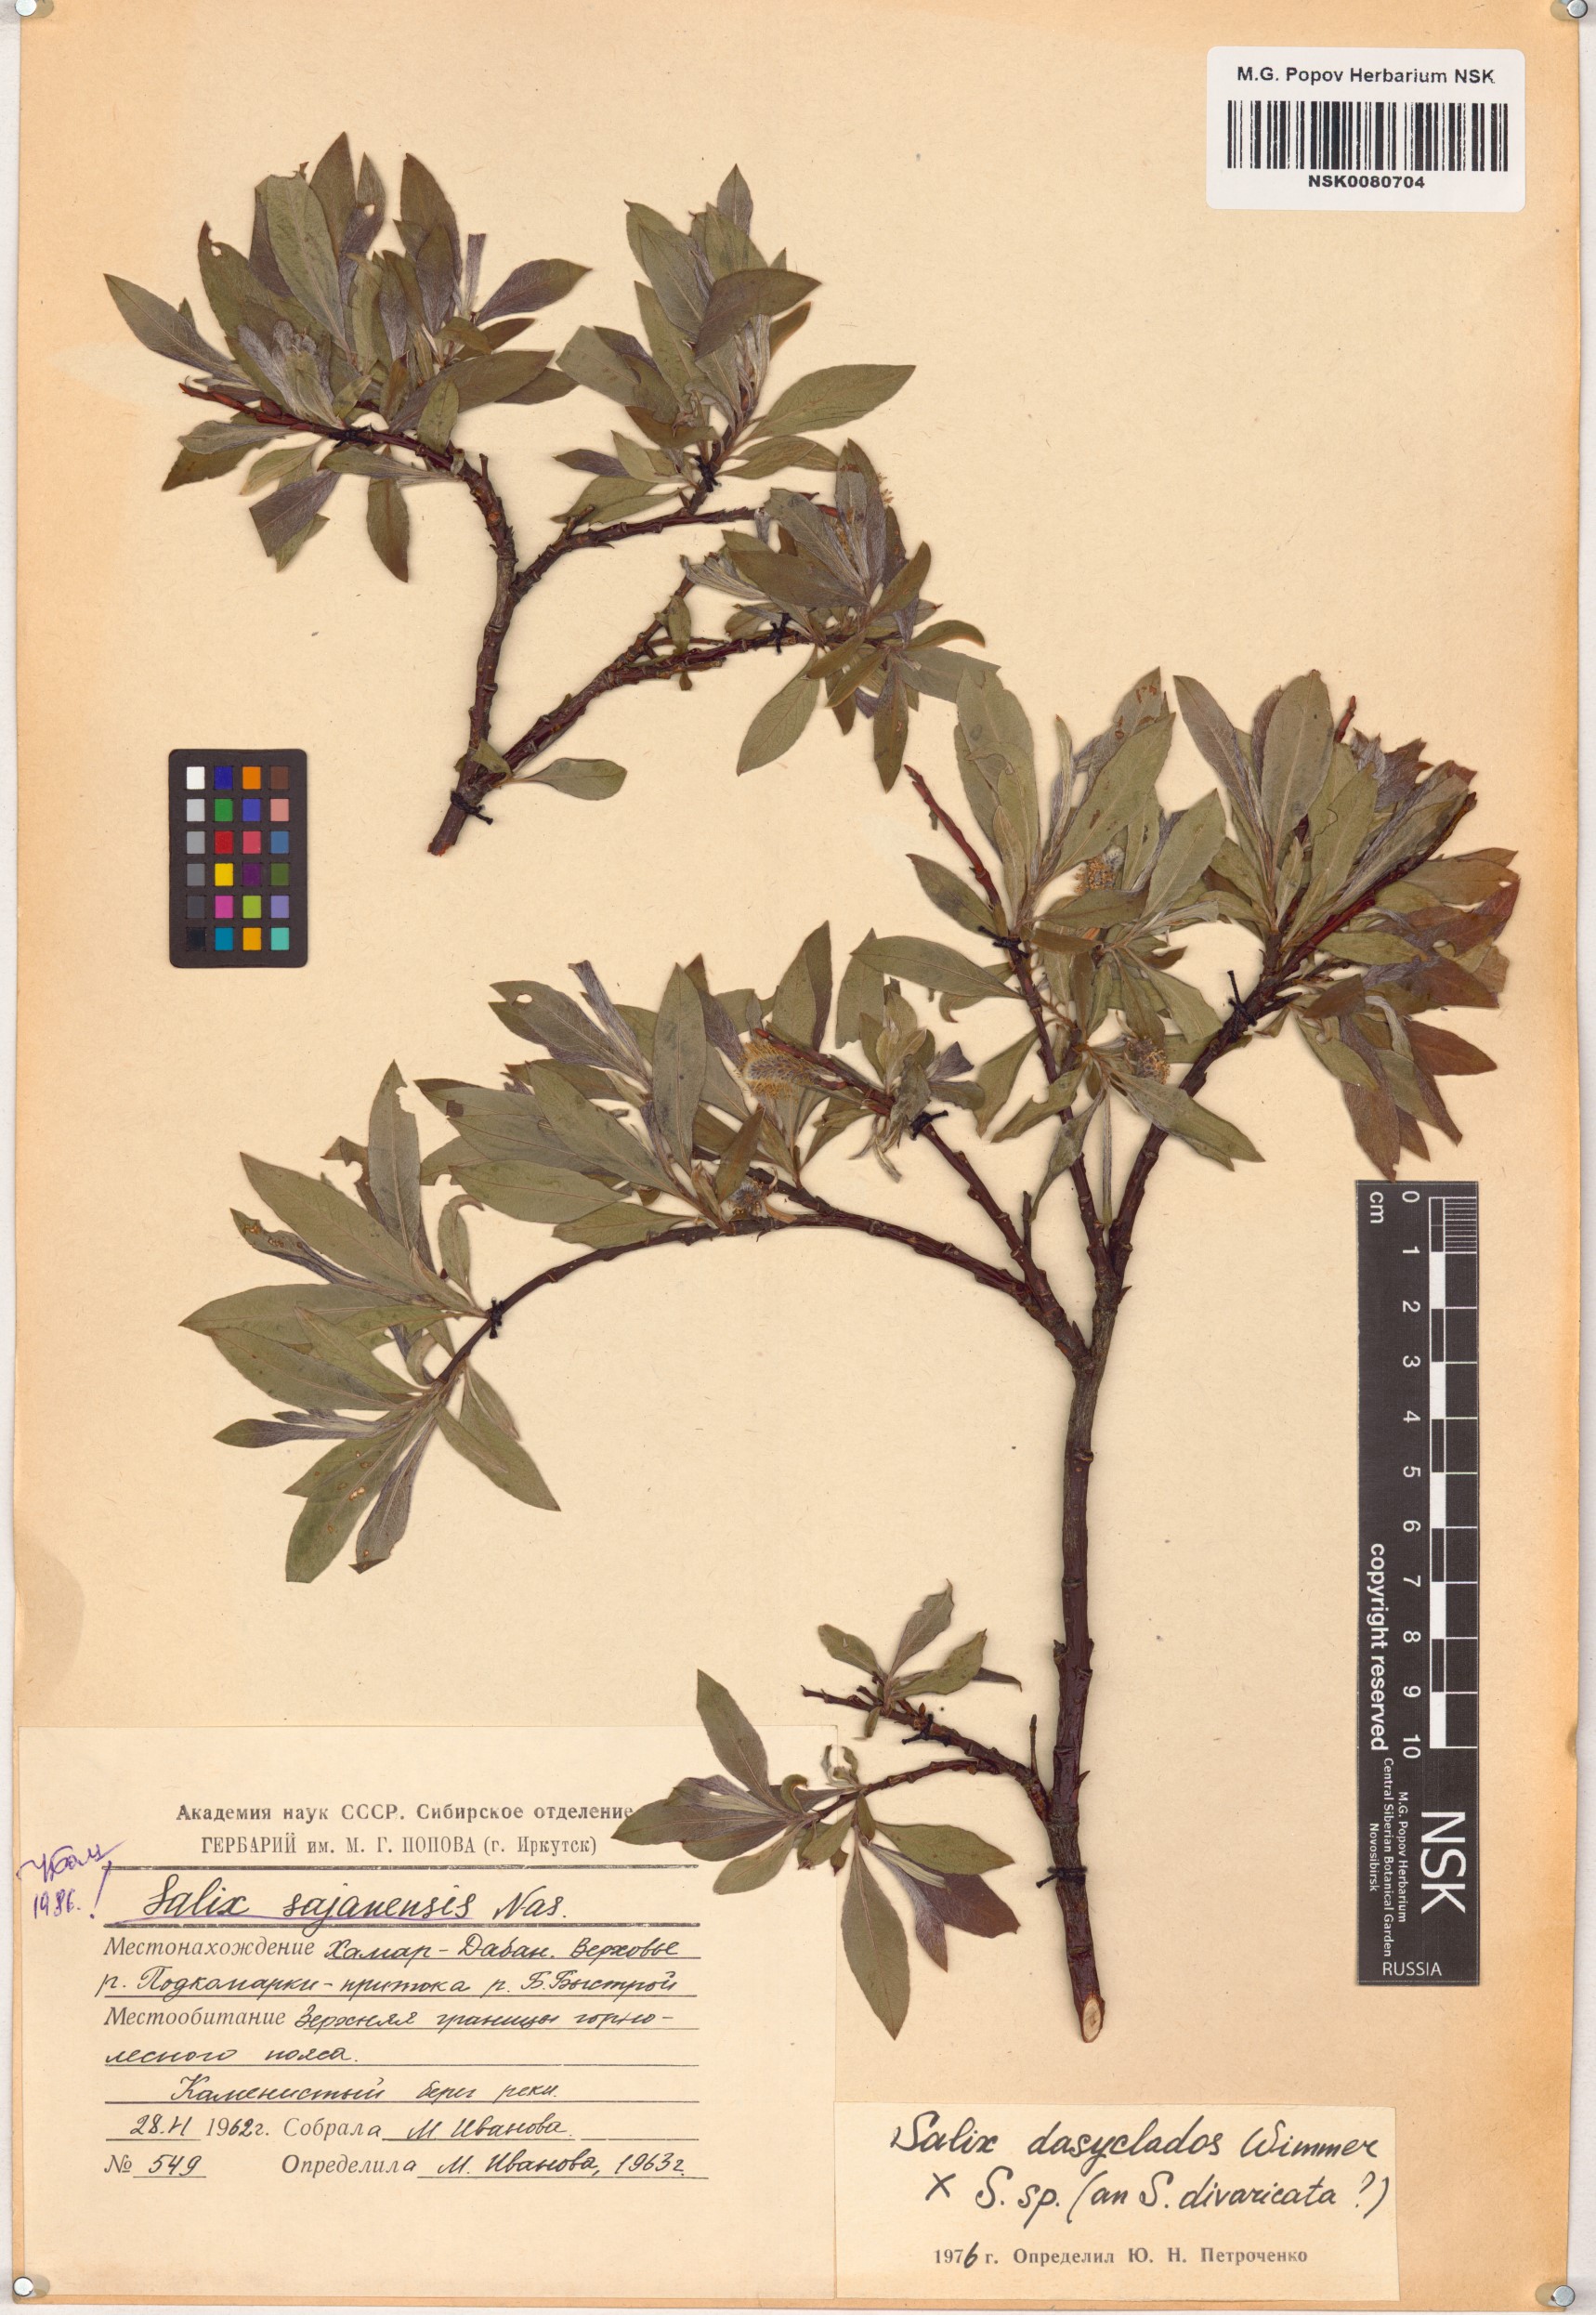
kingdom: Plantae
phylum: Tracheophyta
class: Magnoliopsida
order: Malpighiales
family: Salicaceae
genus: Salix
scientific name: Salix sajanensis
